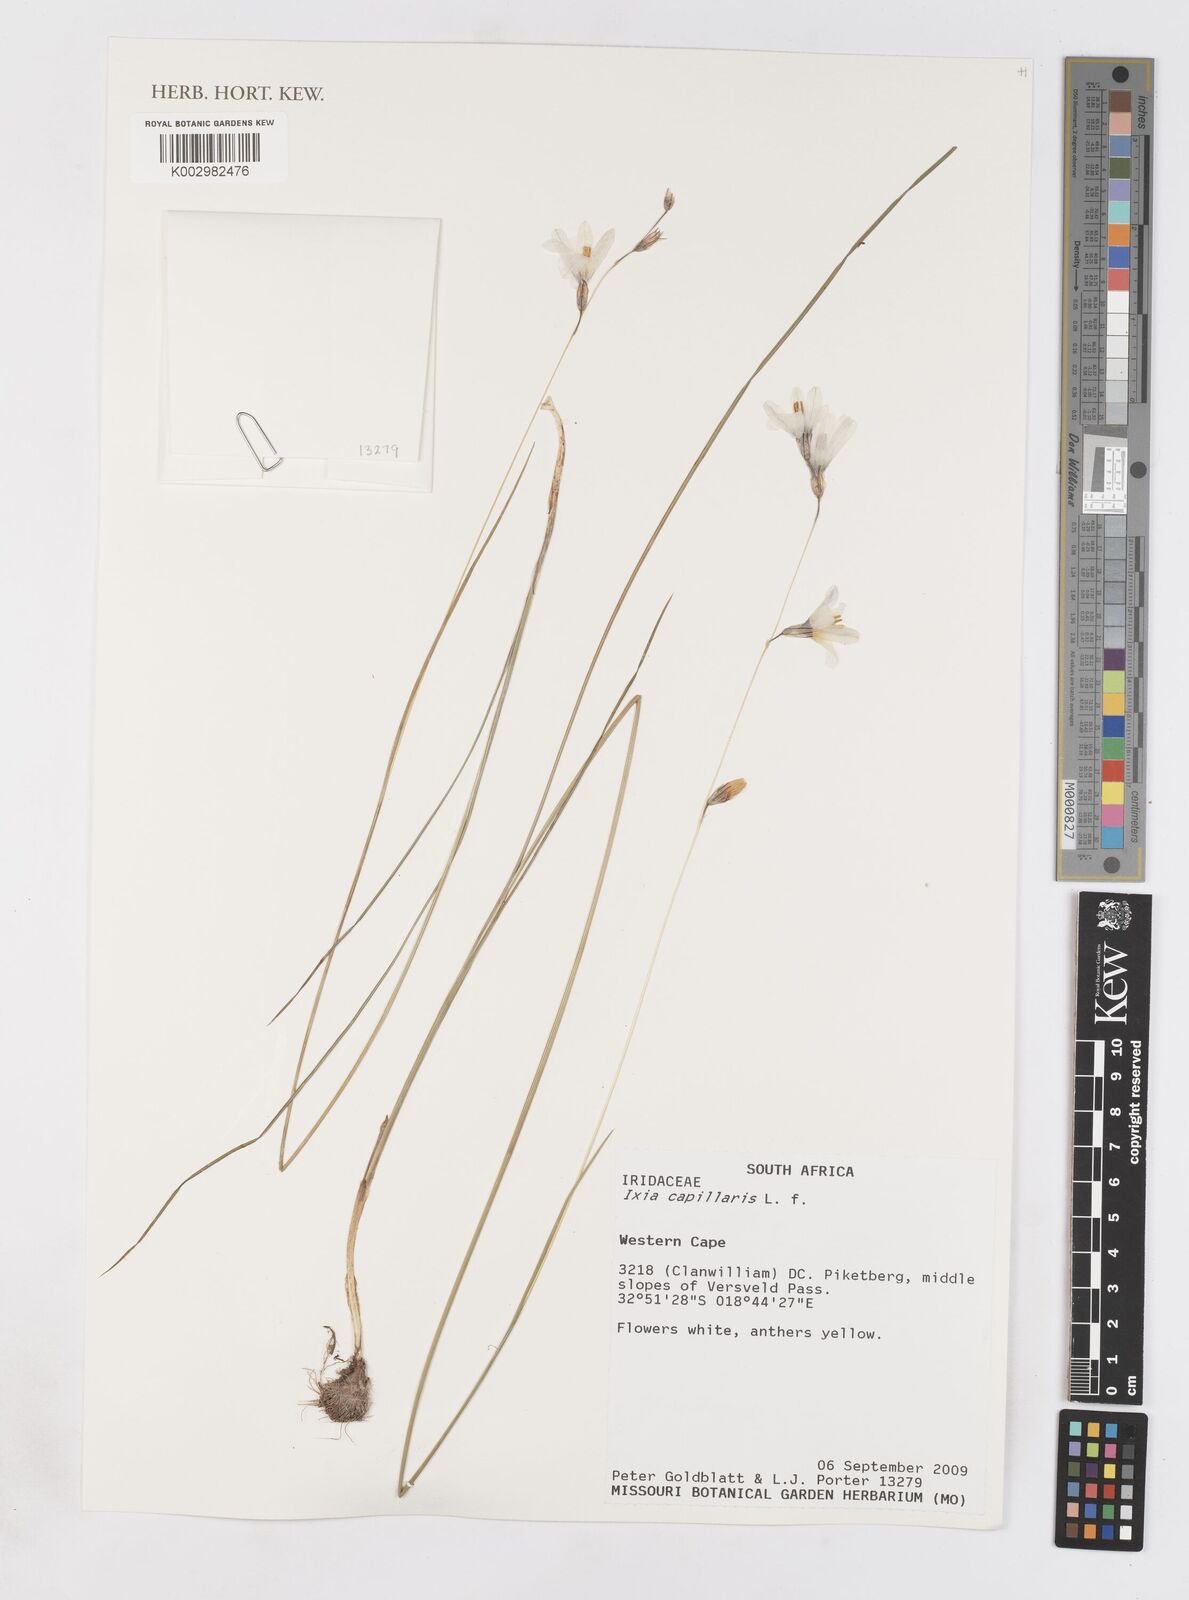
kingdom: Plantae
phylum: Tracheophyta
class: Liliopsida
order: Asparagales
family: Iridaceae
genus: Ixia
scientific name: Ixia capillaris
